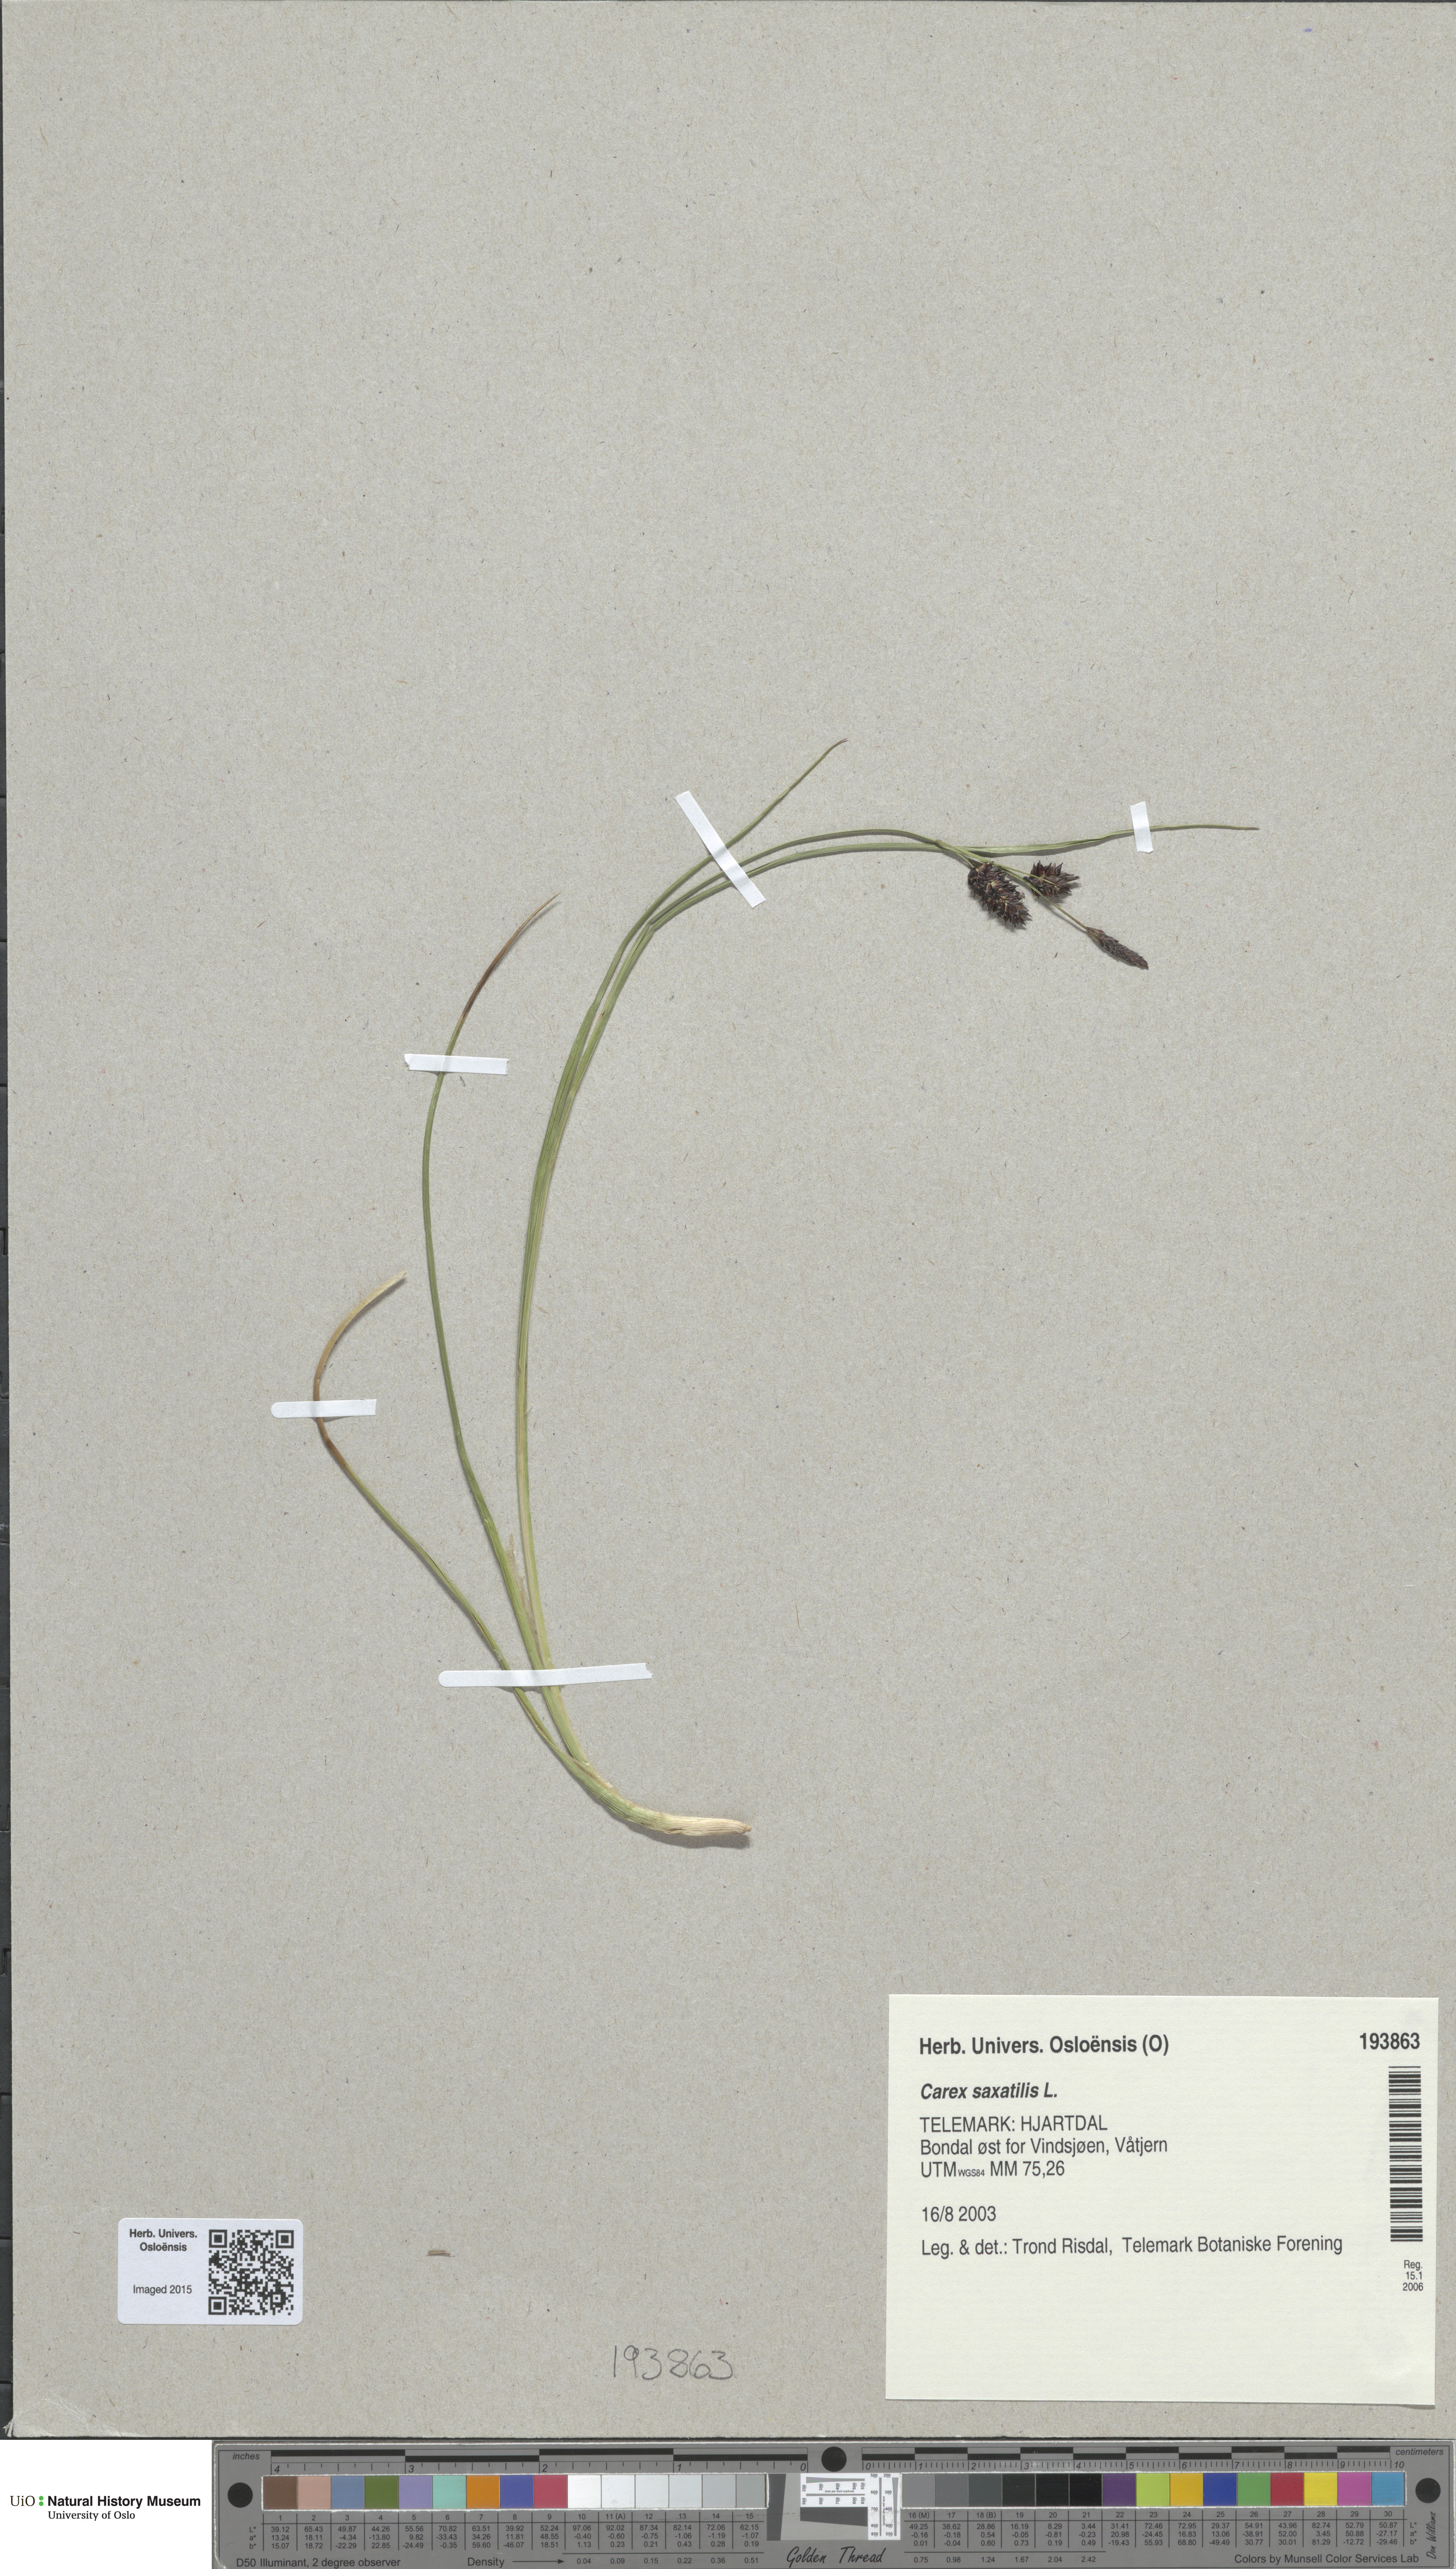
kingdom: Plantae
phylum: Tracheophyta
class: Liliopsida
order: Poales
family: Cyperaceae
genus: Carex
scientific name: Carex saxatilis
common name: Russet sedge
